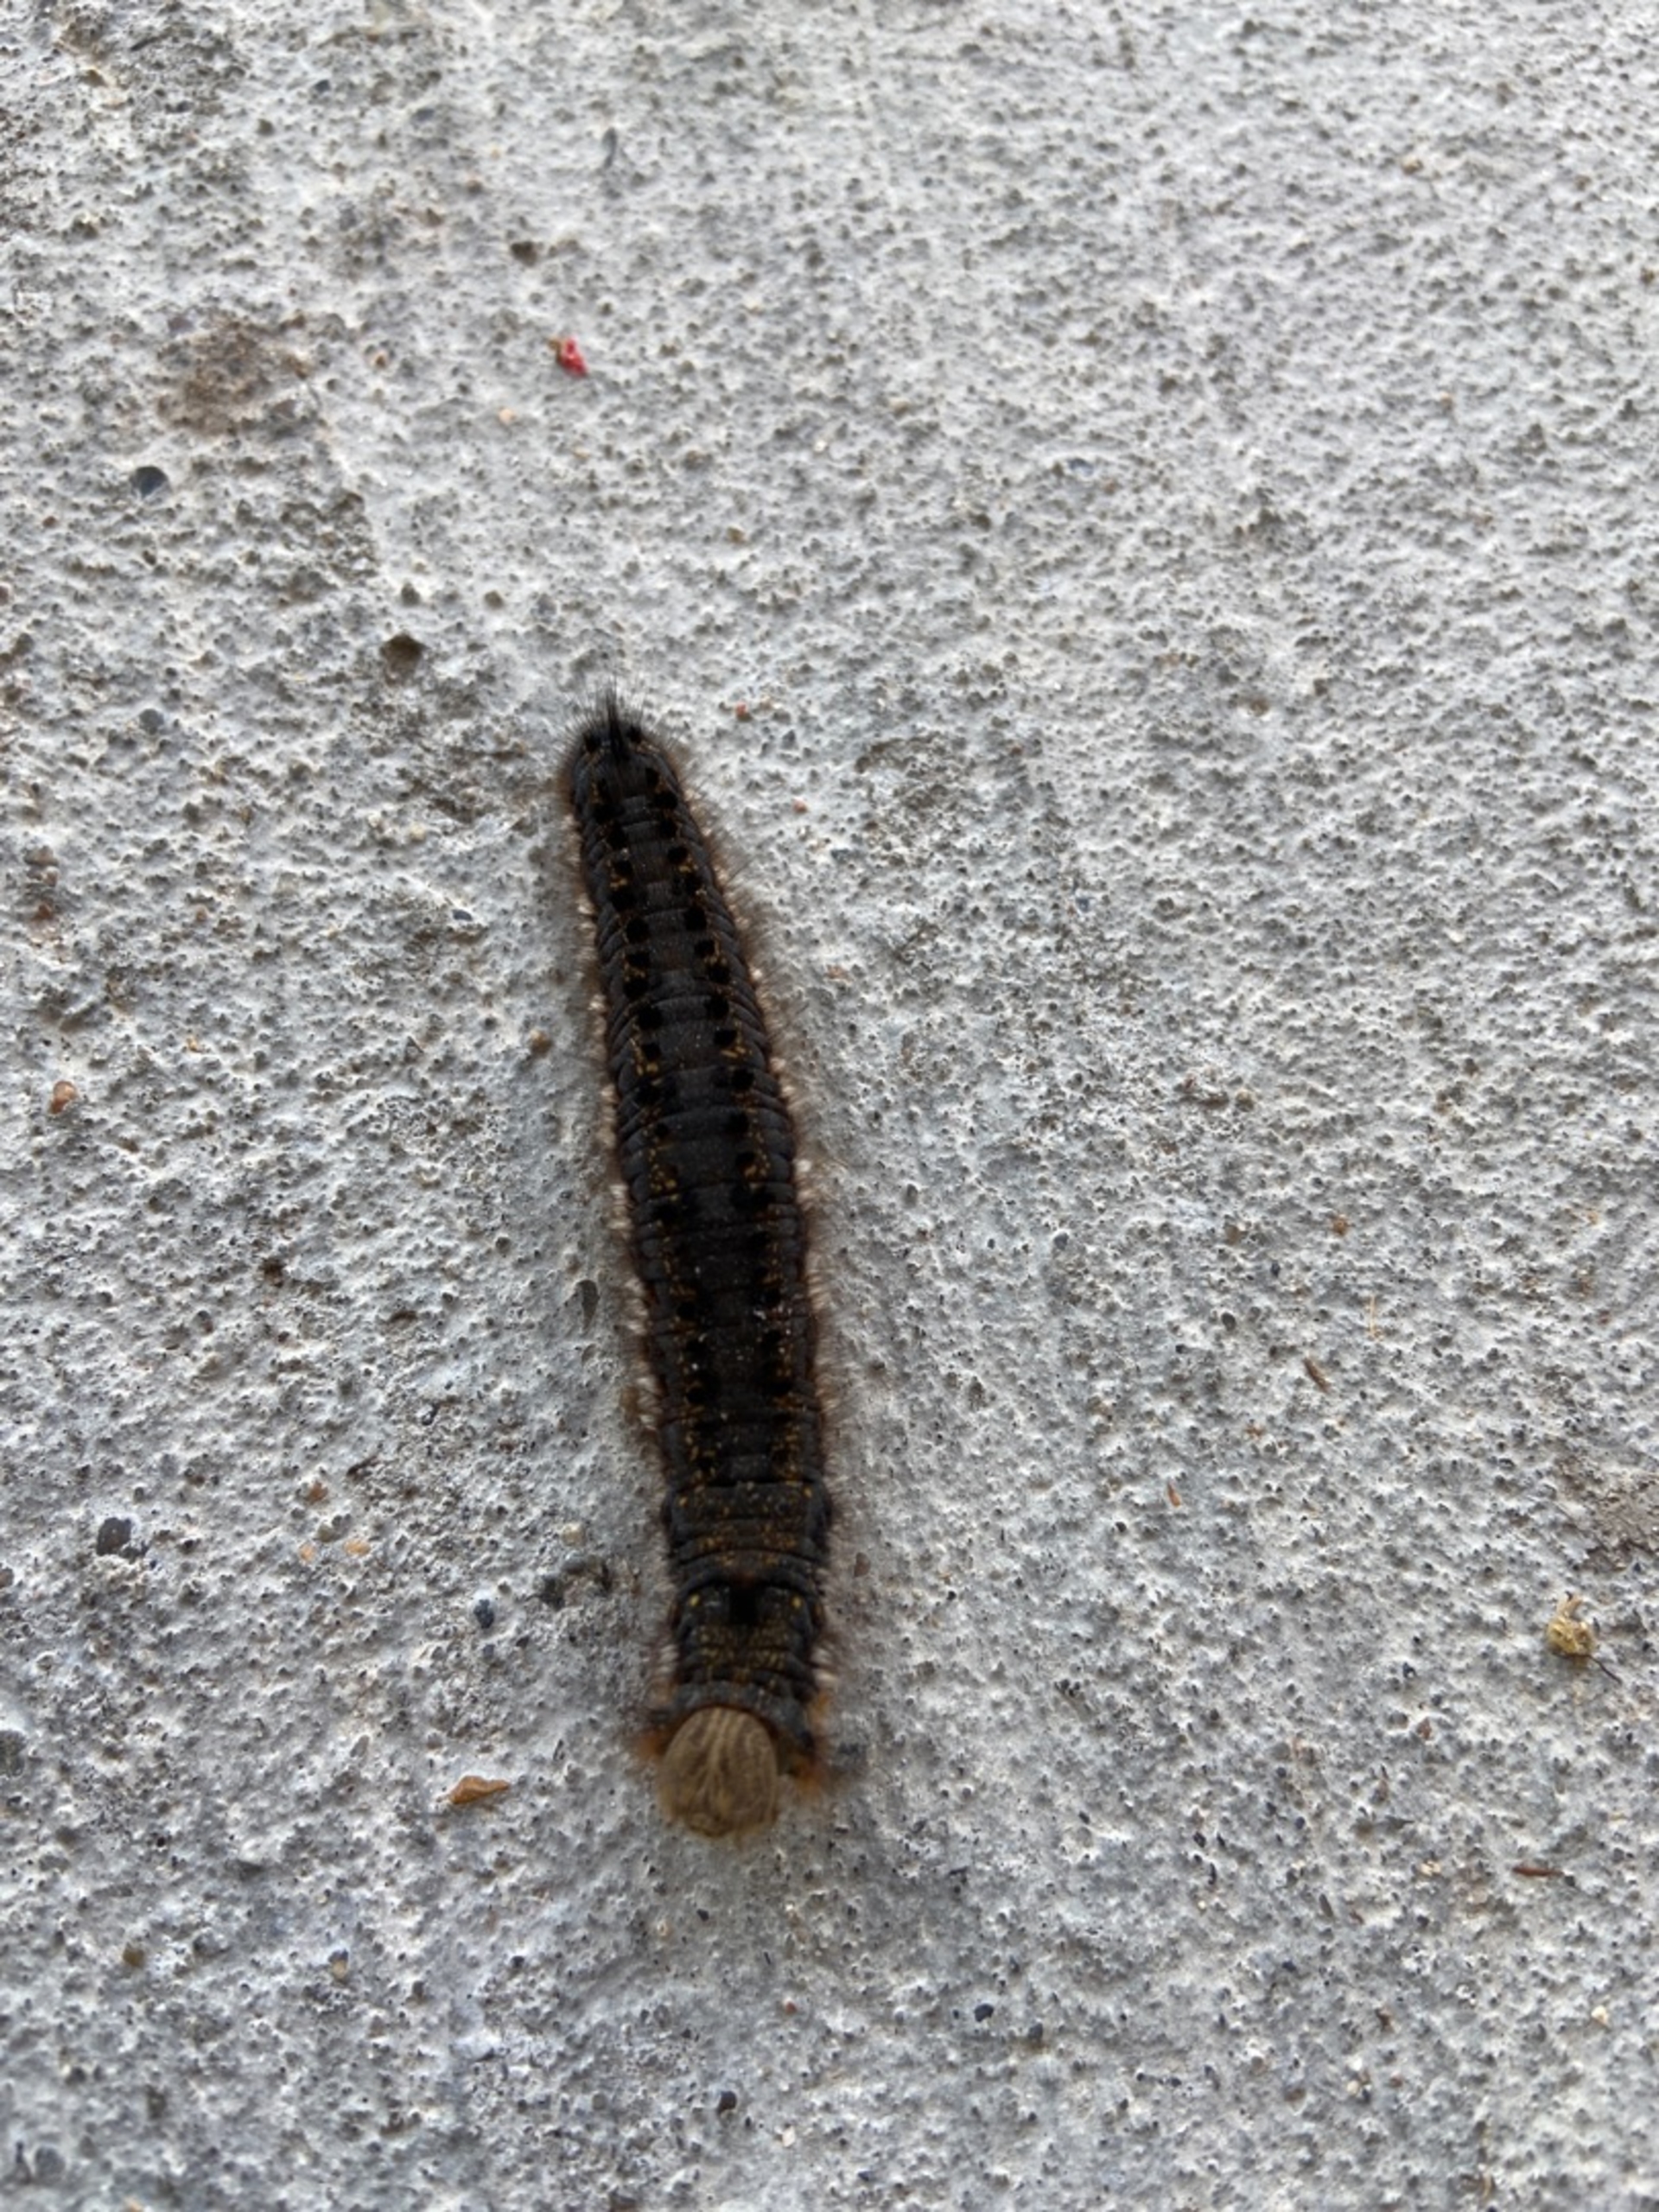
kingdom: Animalia
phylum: Arthropoda
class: Insecta
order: Lepidoptera
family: Lasiocampidae
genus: Euthrix
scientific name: Euthrix potatoria
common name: Græsspinder
